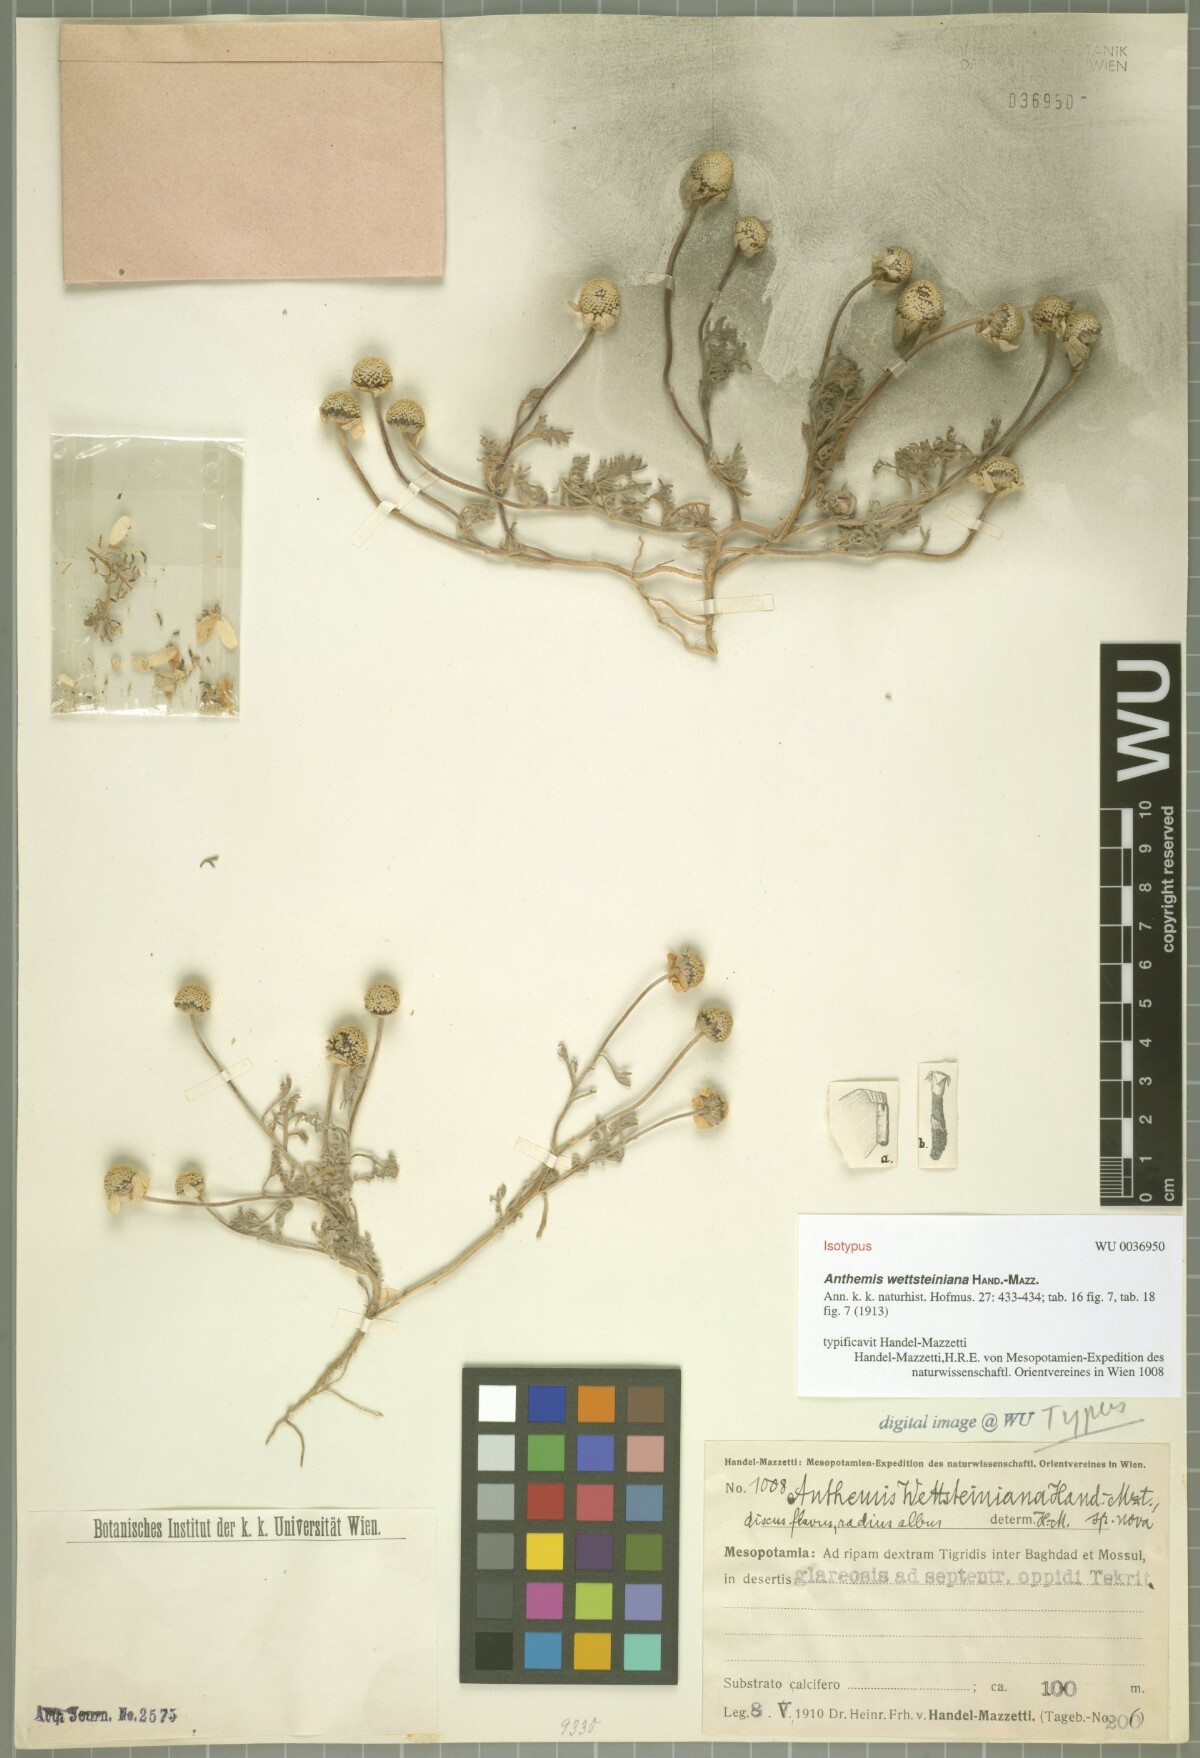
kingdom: Plantae
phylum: Tracheophyta
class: Magnoliopsida
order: Asterales
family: Asteraceae
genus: Anthemis
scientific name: Anthemis wettsteiniana
